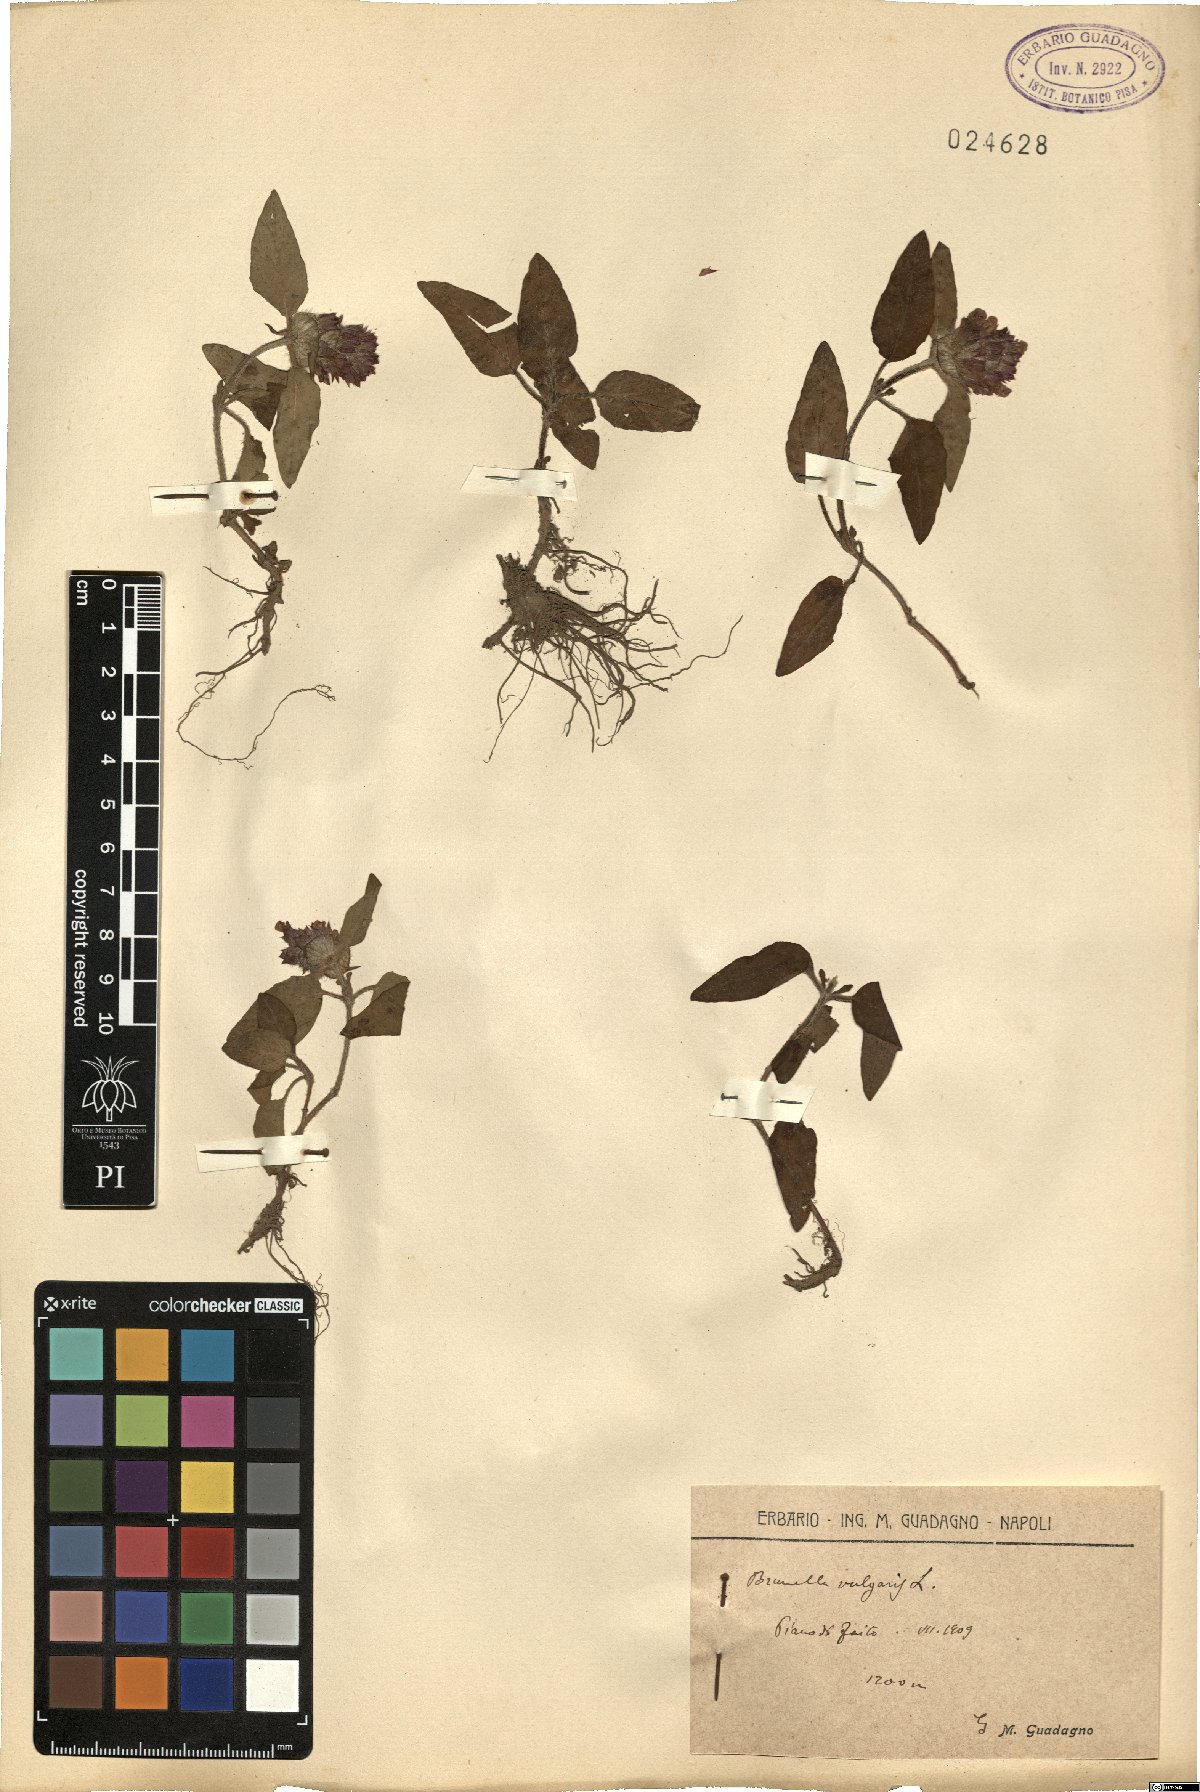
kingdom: Plantae
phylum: Tracheophyta
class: Magnoliopsida
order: Lamiales
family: Lamiaceae
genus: Prunella
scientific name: Prunella vulgaris
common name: Heal-all
